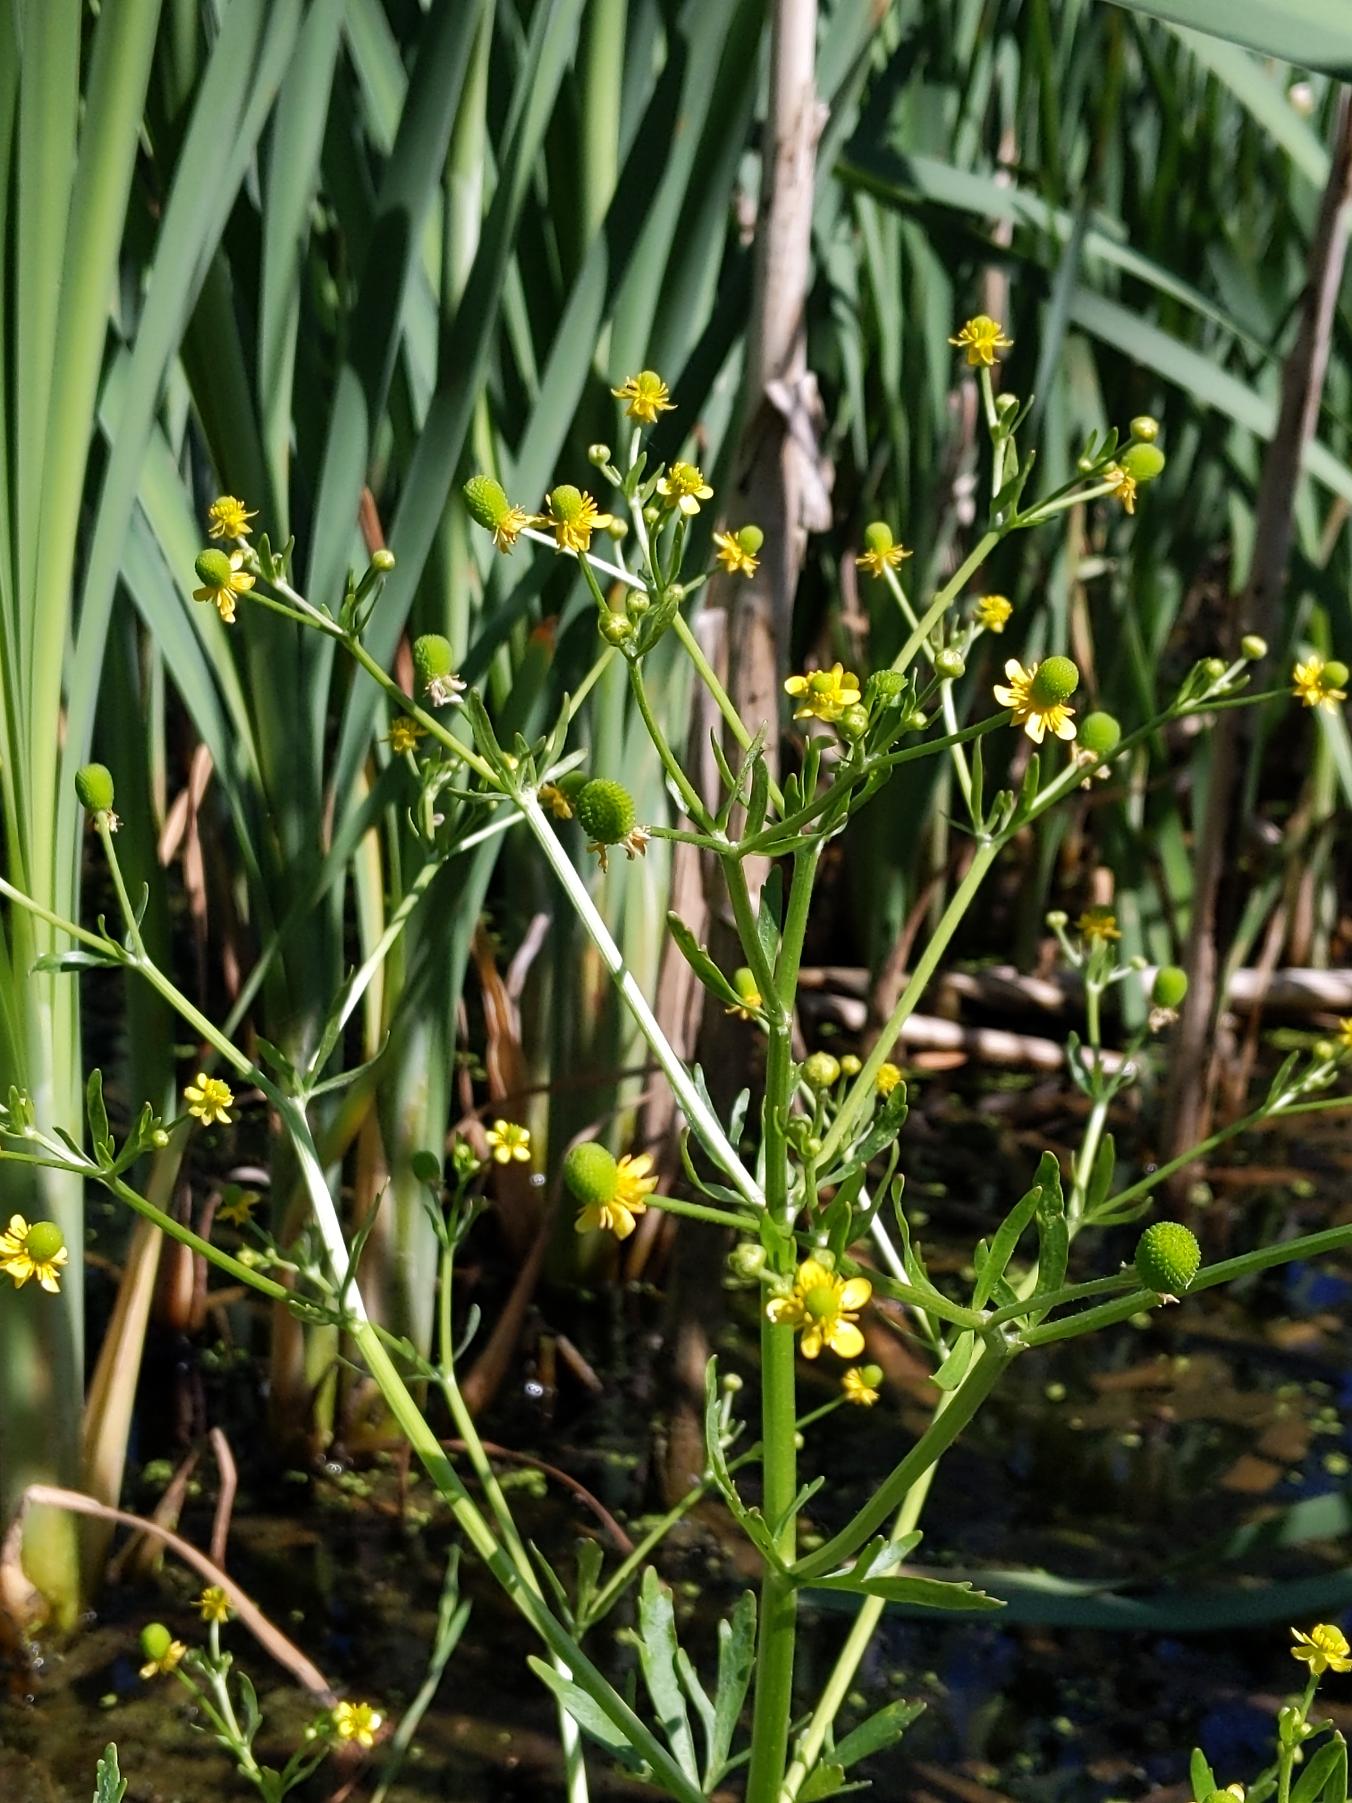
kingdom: Plantae
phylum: Tracheophyta
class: Magnoliopsida
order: Ranunculales
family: Ranunculaceae
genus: Ranunculus
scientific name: Ranunculus sceleratus
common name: Tigger-ranunkel
